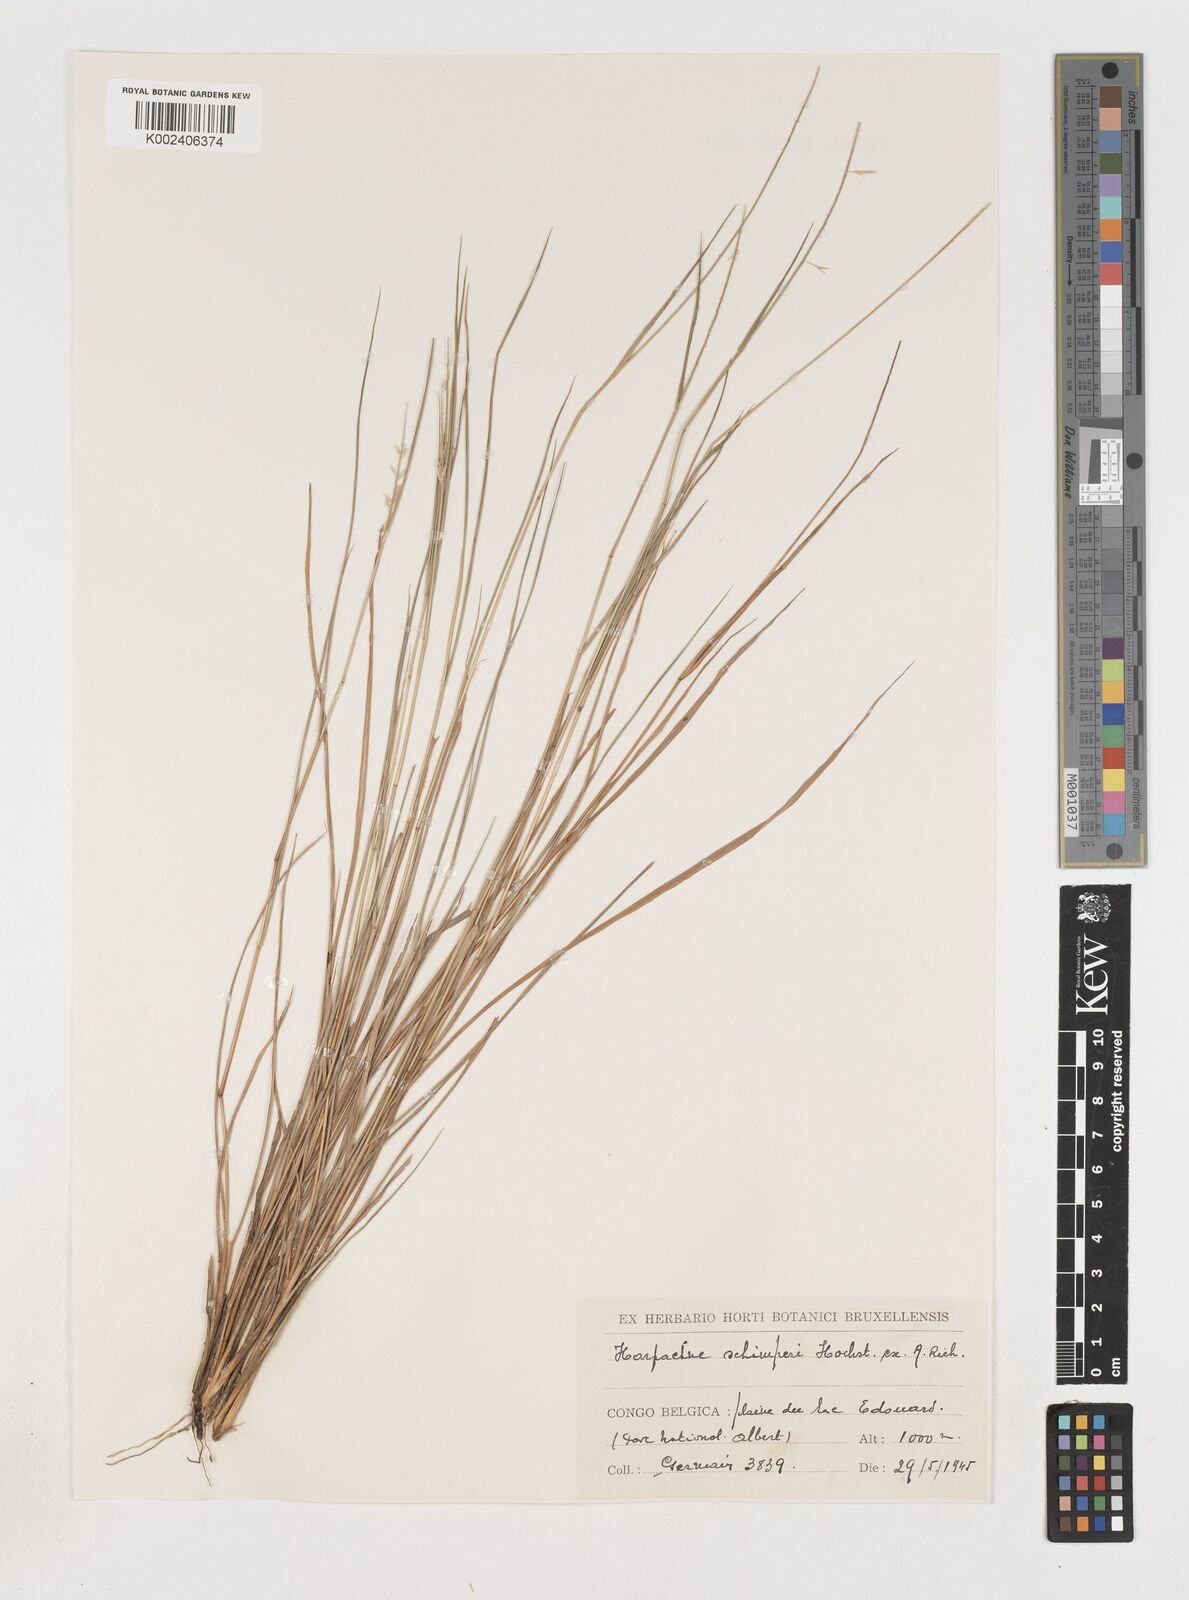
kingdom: Plantae
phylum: Tracheophyta
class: Liliopsida
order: Poales
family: Poaceae
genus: Harpachne
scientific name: Harpachne schimperi
